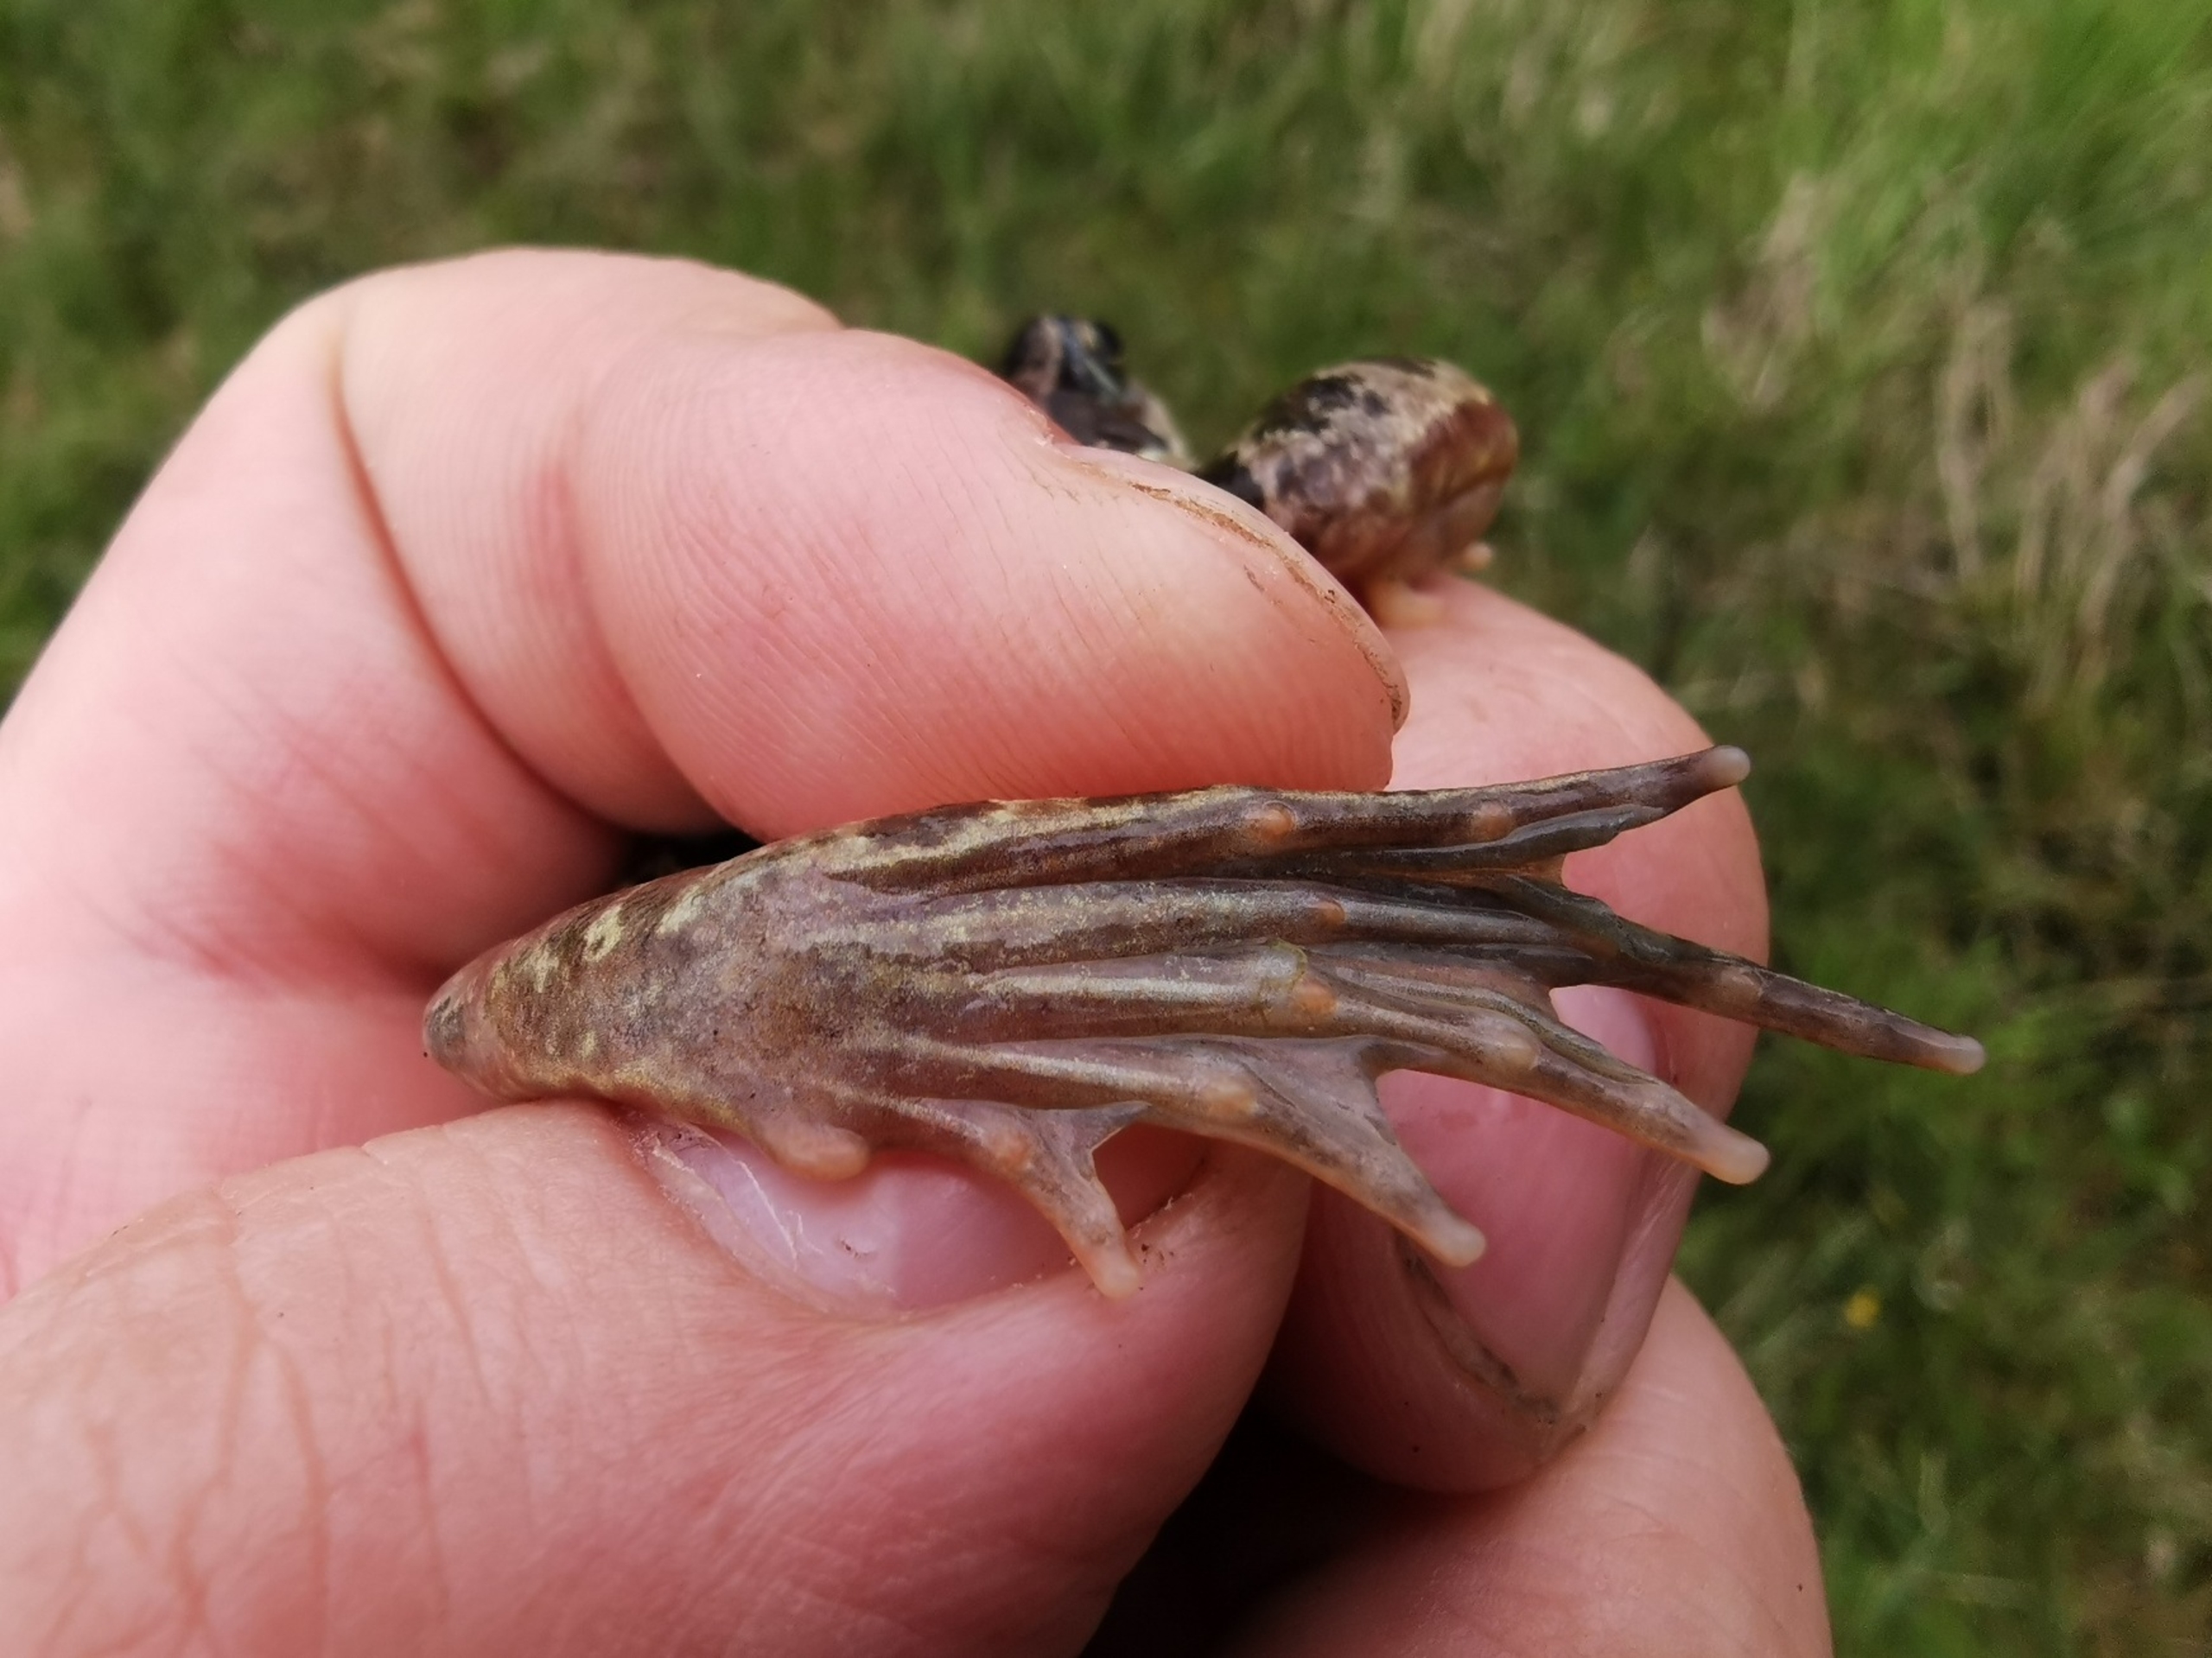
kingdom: Animalia
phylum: Chordata
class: Amphibia
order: Anura
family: Ranidae
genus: Rana
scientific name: Rana temporaria
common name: Butsnudet frø
